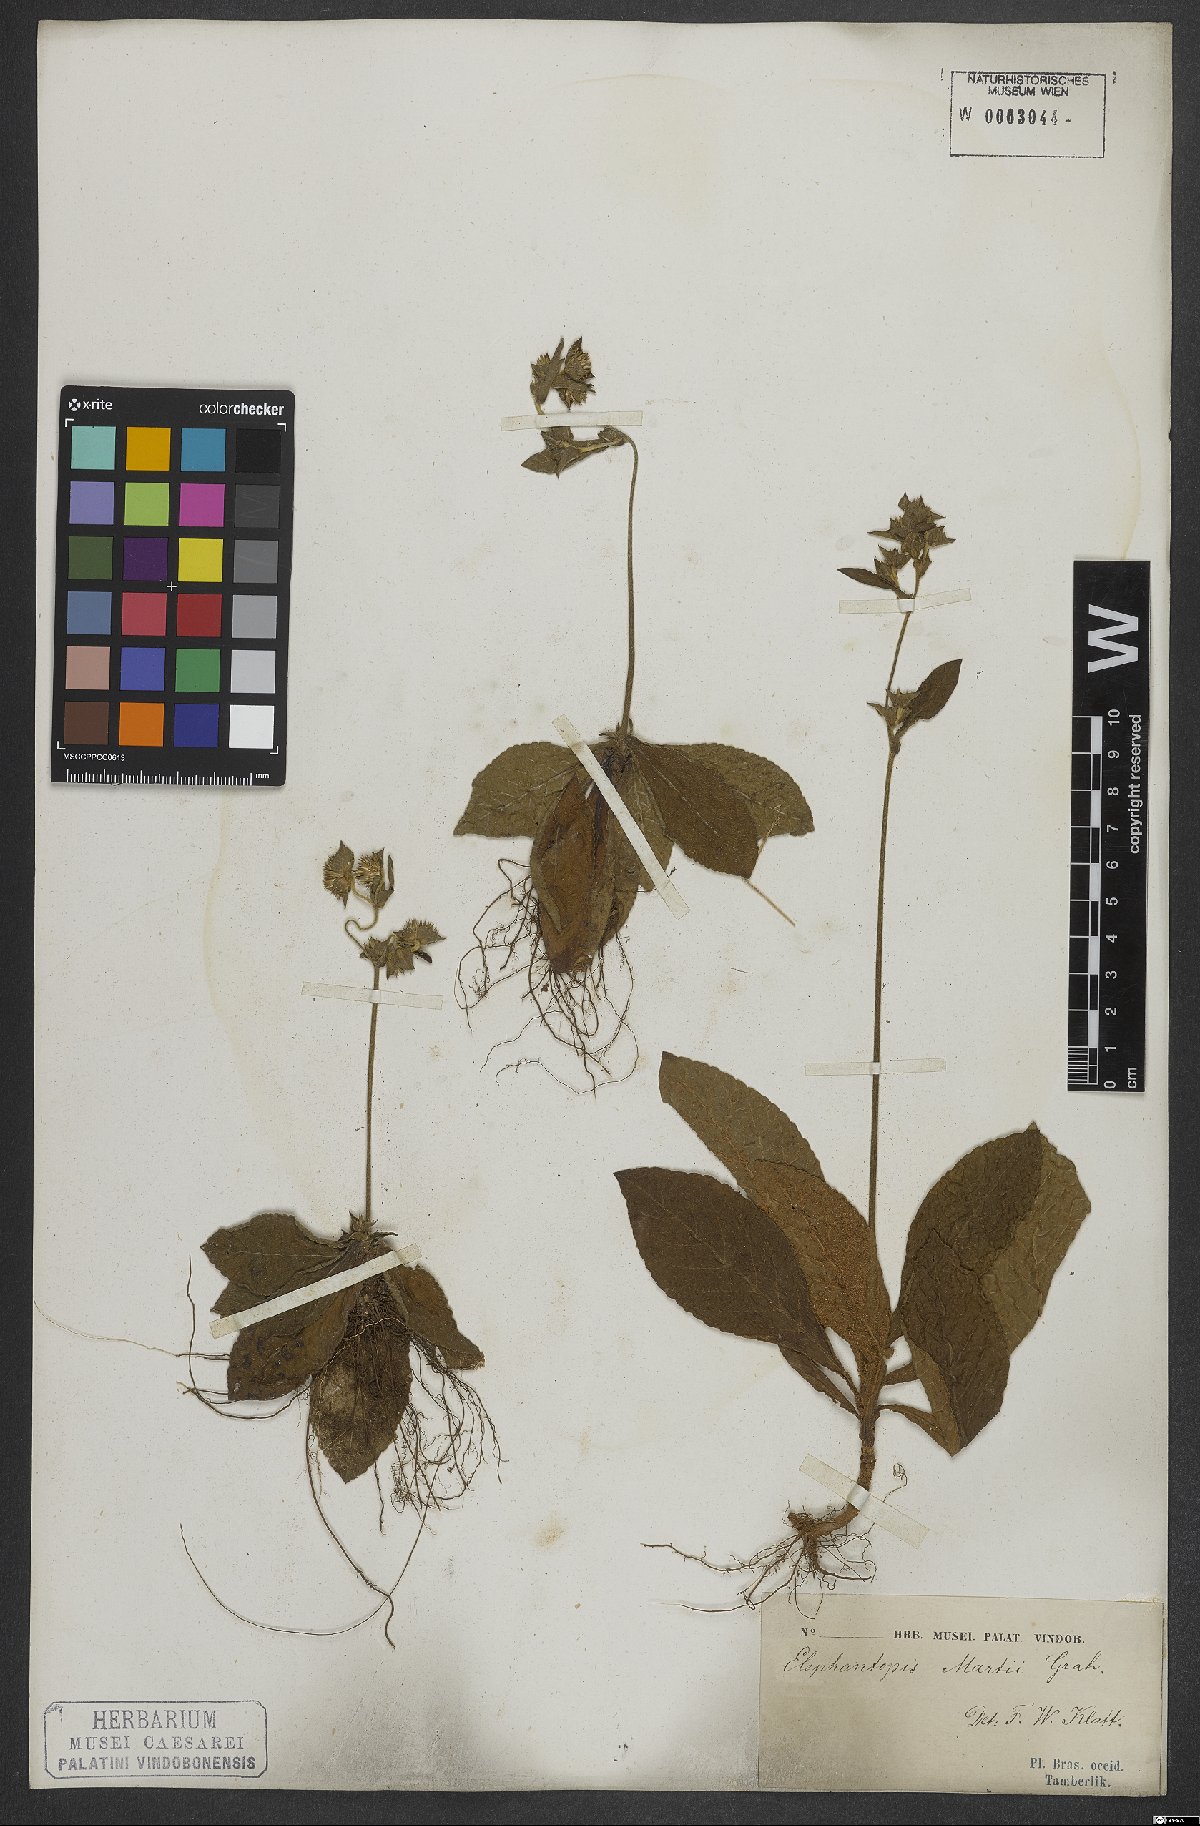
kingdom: Plantae
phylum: Tracheophyta
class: Magnoliopsida
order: Asterales
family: Asteraceae
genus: Elephantopus
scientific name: Elephantopus mollis
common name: Soft elephantsfoot
